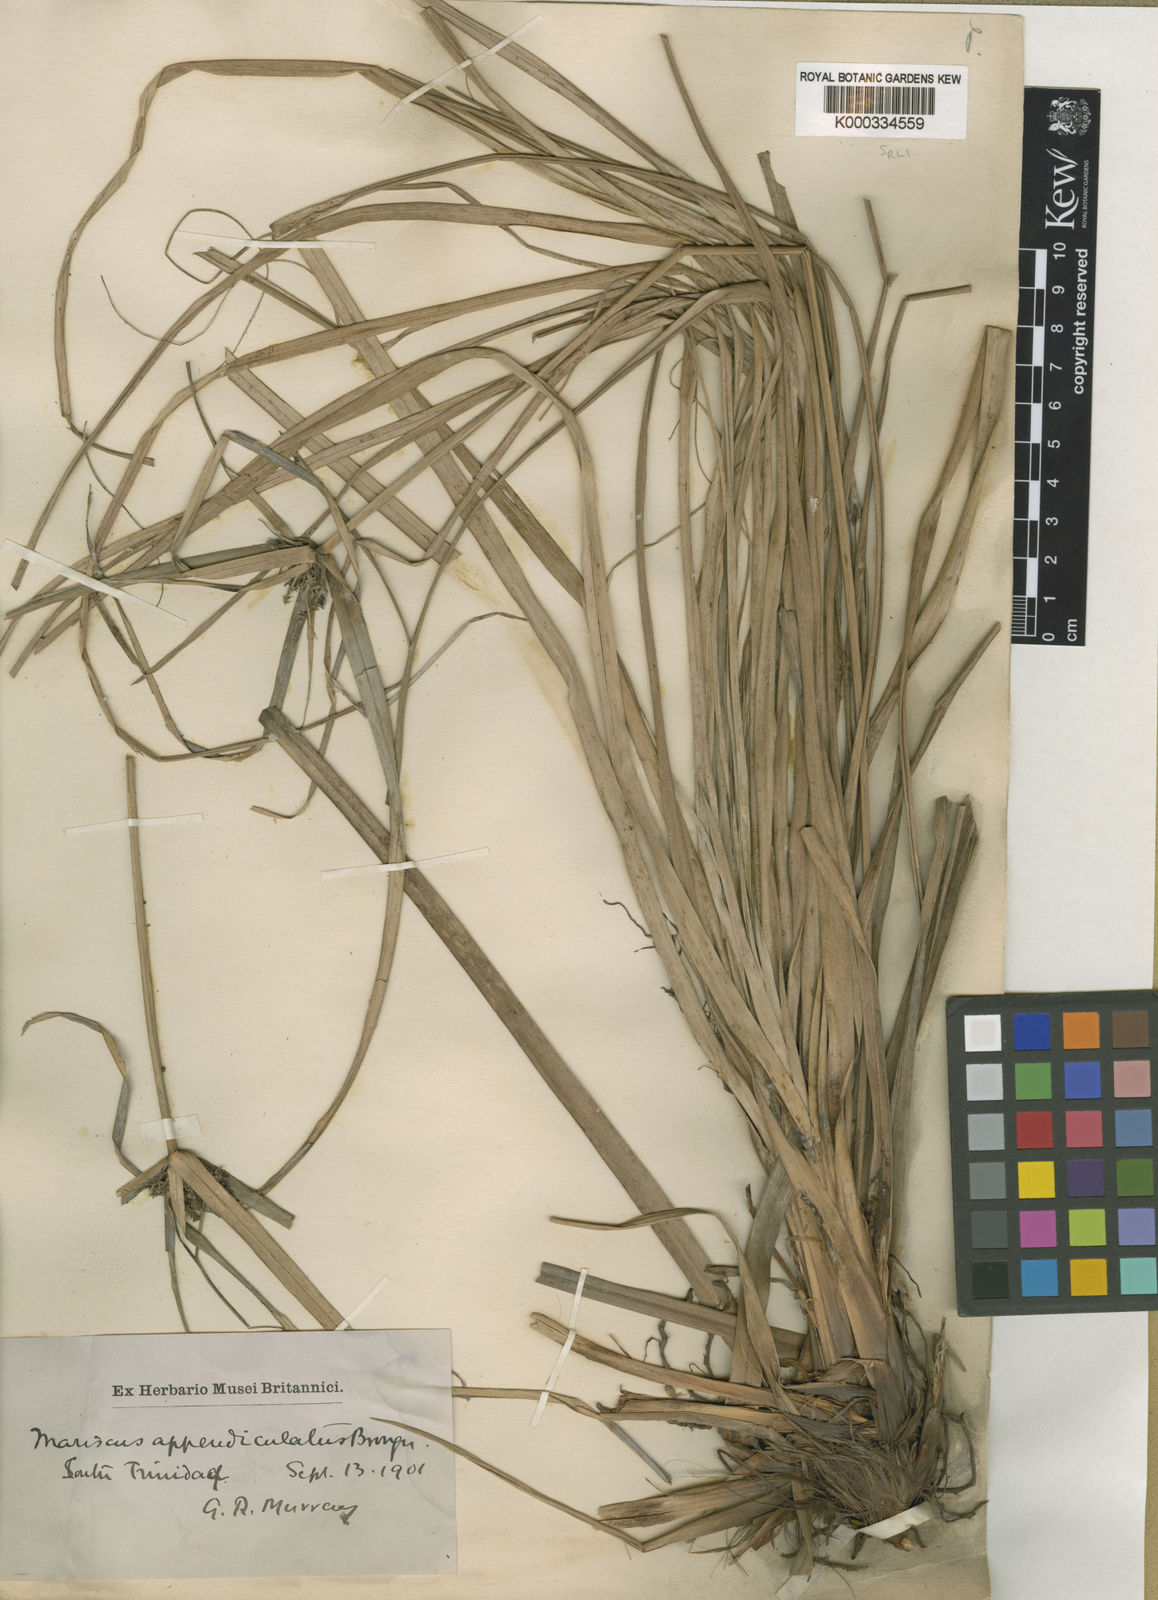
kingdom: Plantae
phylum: Tracheophyta
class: Liliopsida
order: Poales
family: Cyperaceae
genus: Cyperus
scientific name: Cyperus appendiculatus
